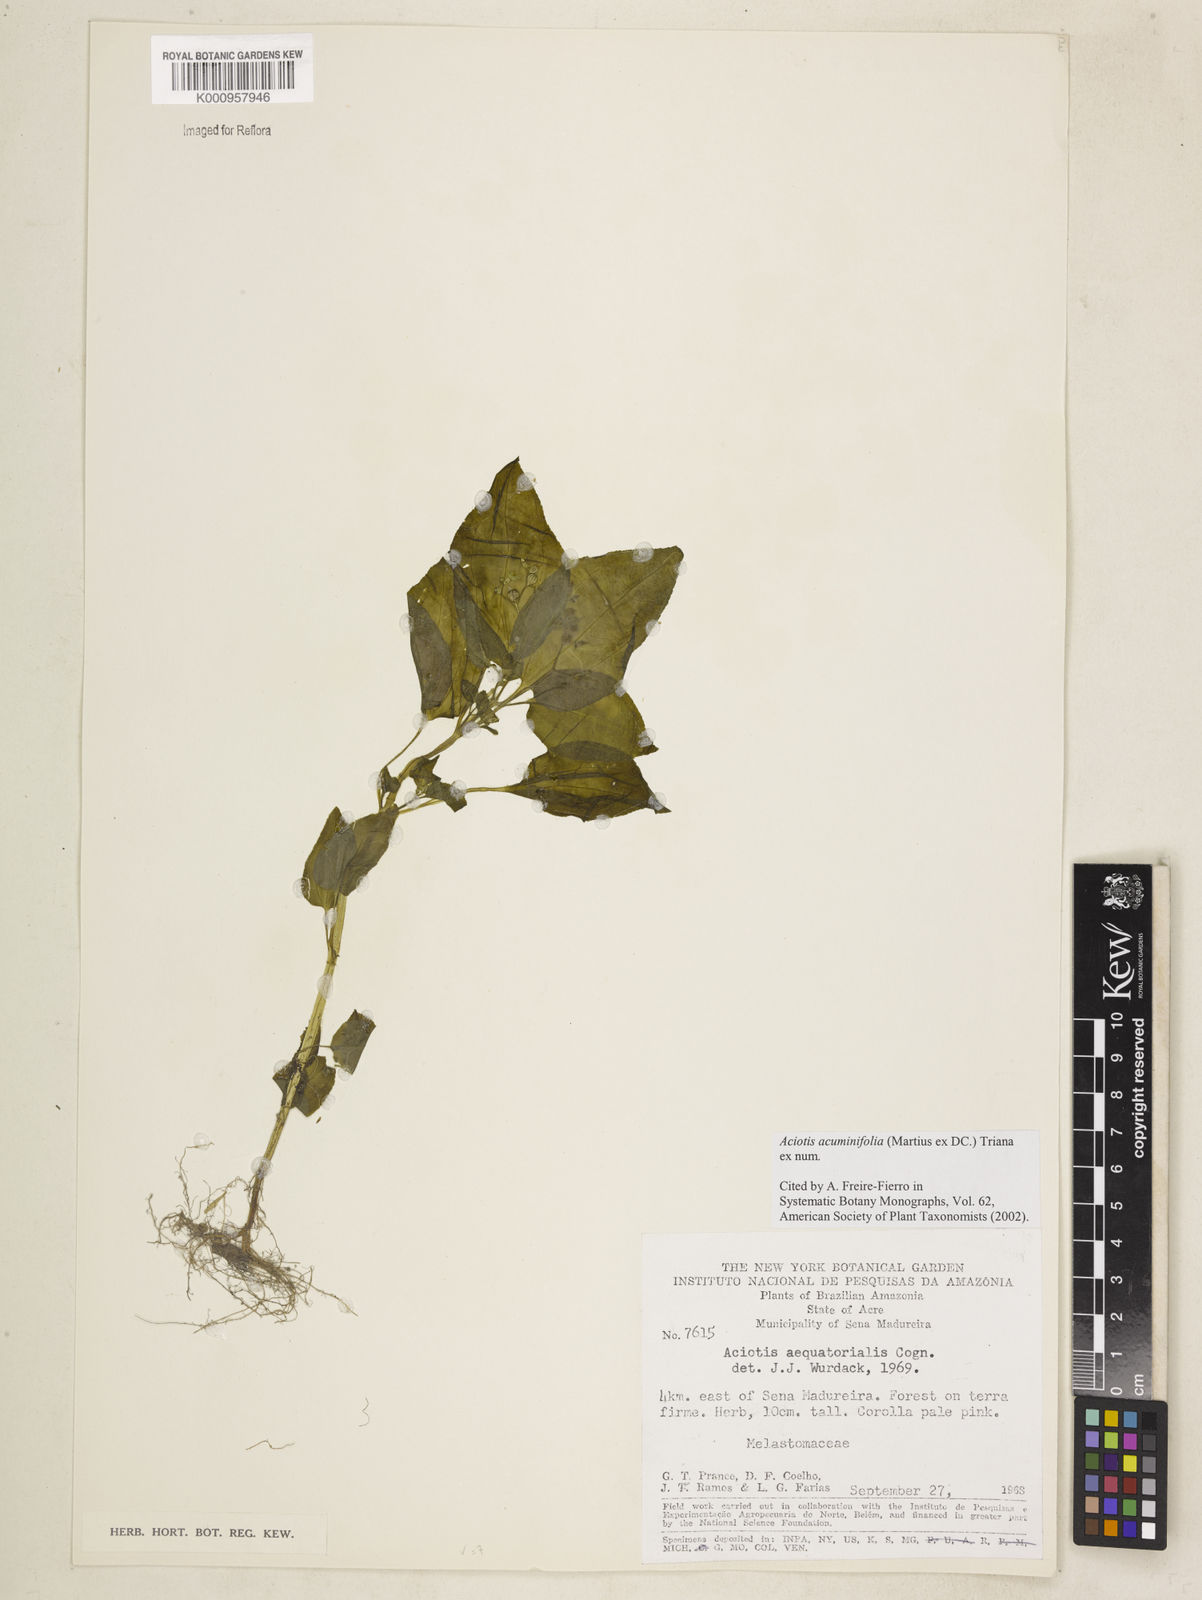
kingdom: Plantae
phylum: Tracheophyta
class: Magnoliopsida
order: Myrtales
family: Melastomataceae
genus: Aciotis
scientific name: Aciotis acuminifolia
